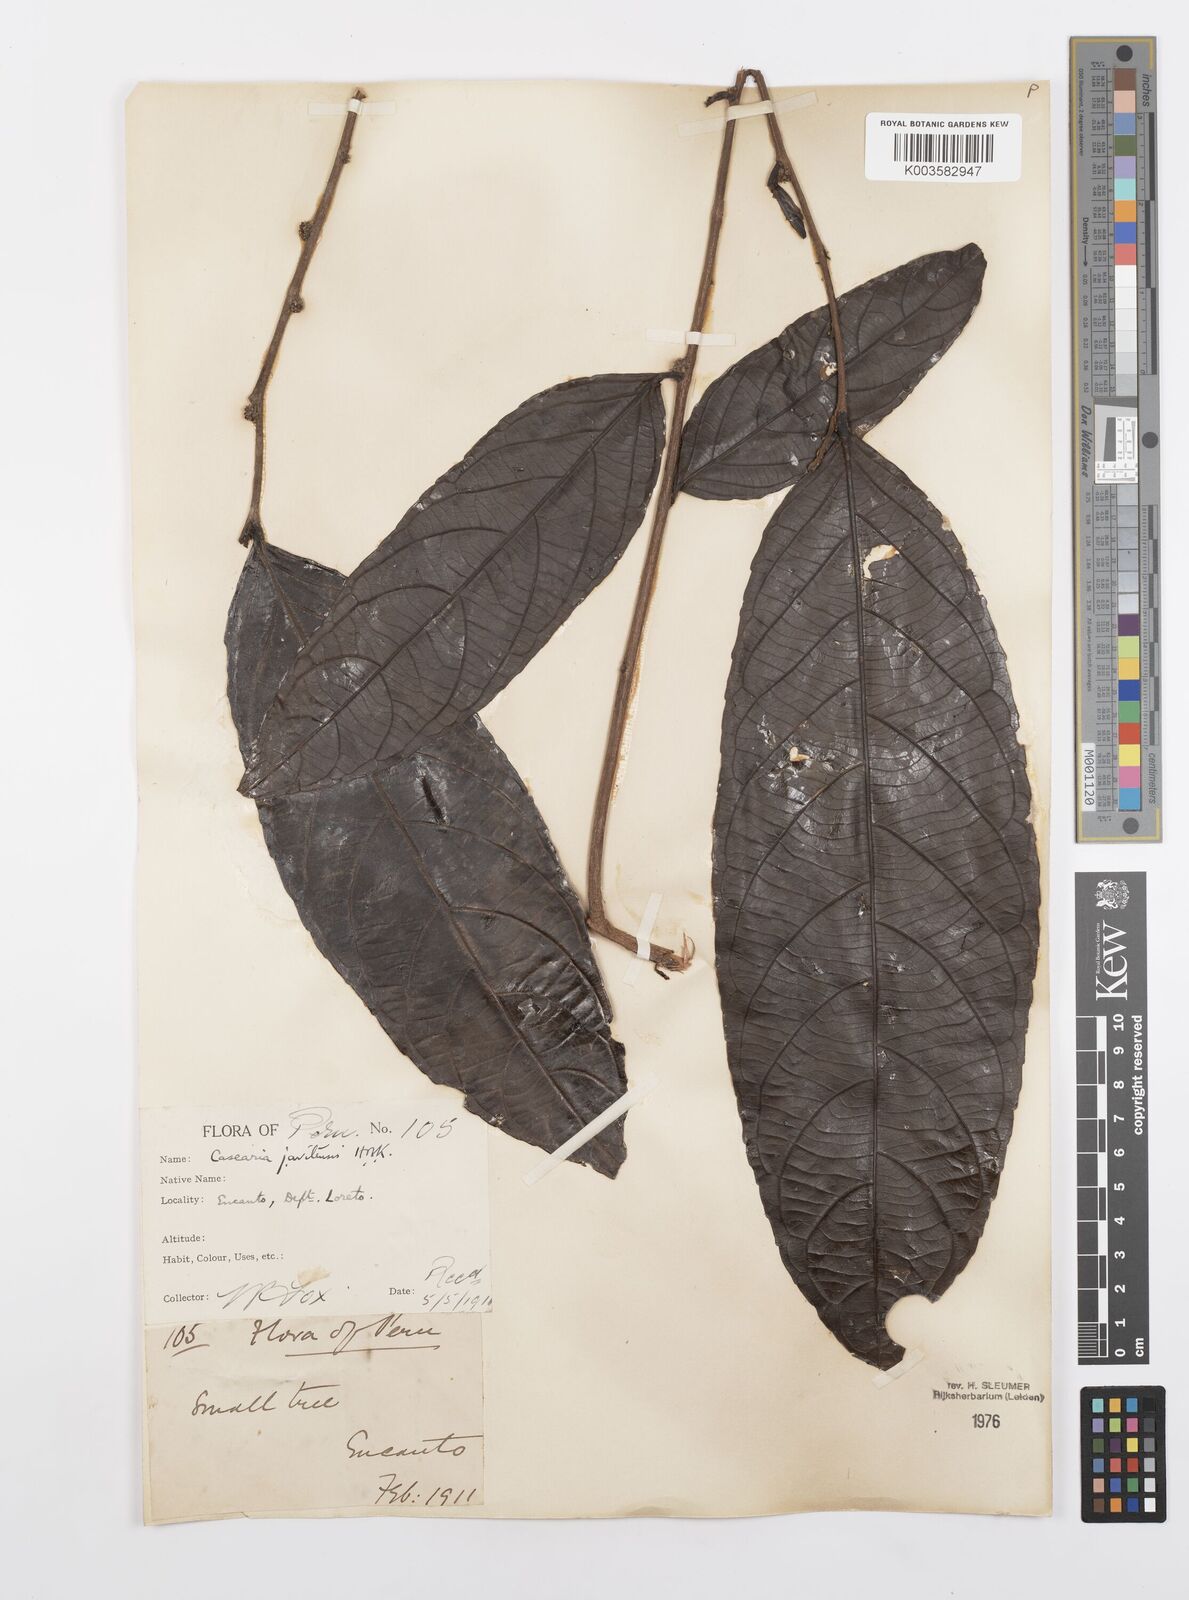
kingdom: Plantae
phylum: Tracheophyta
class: Magnoliopsida
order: Malpighiales
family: Salicaceae
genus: Piparea
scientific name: Piparea multiflora
